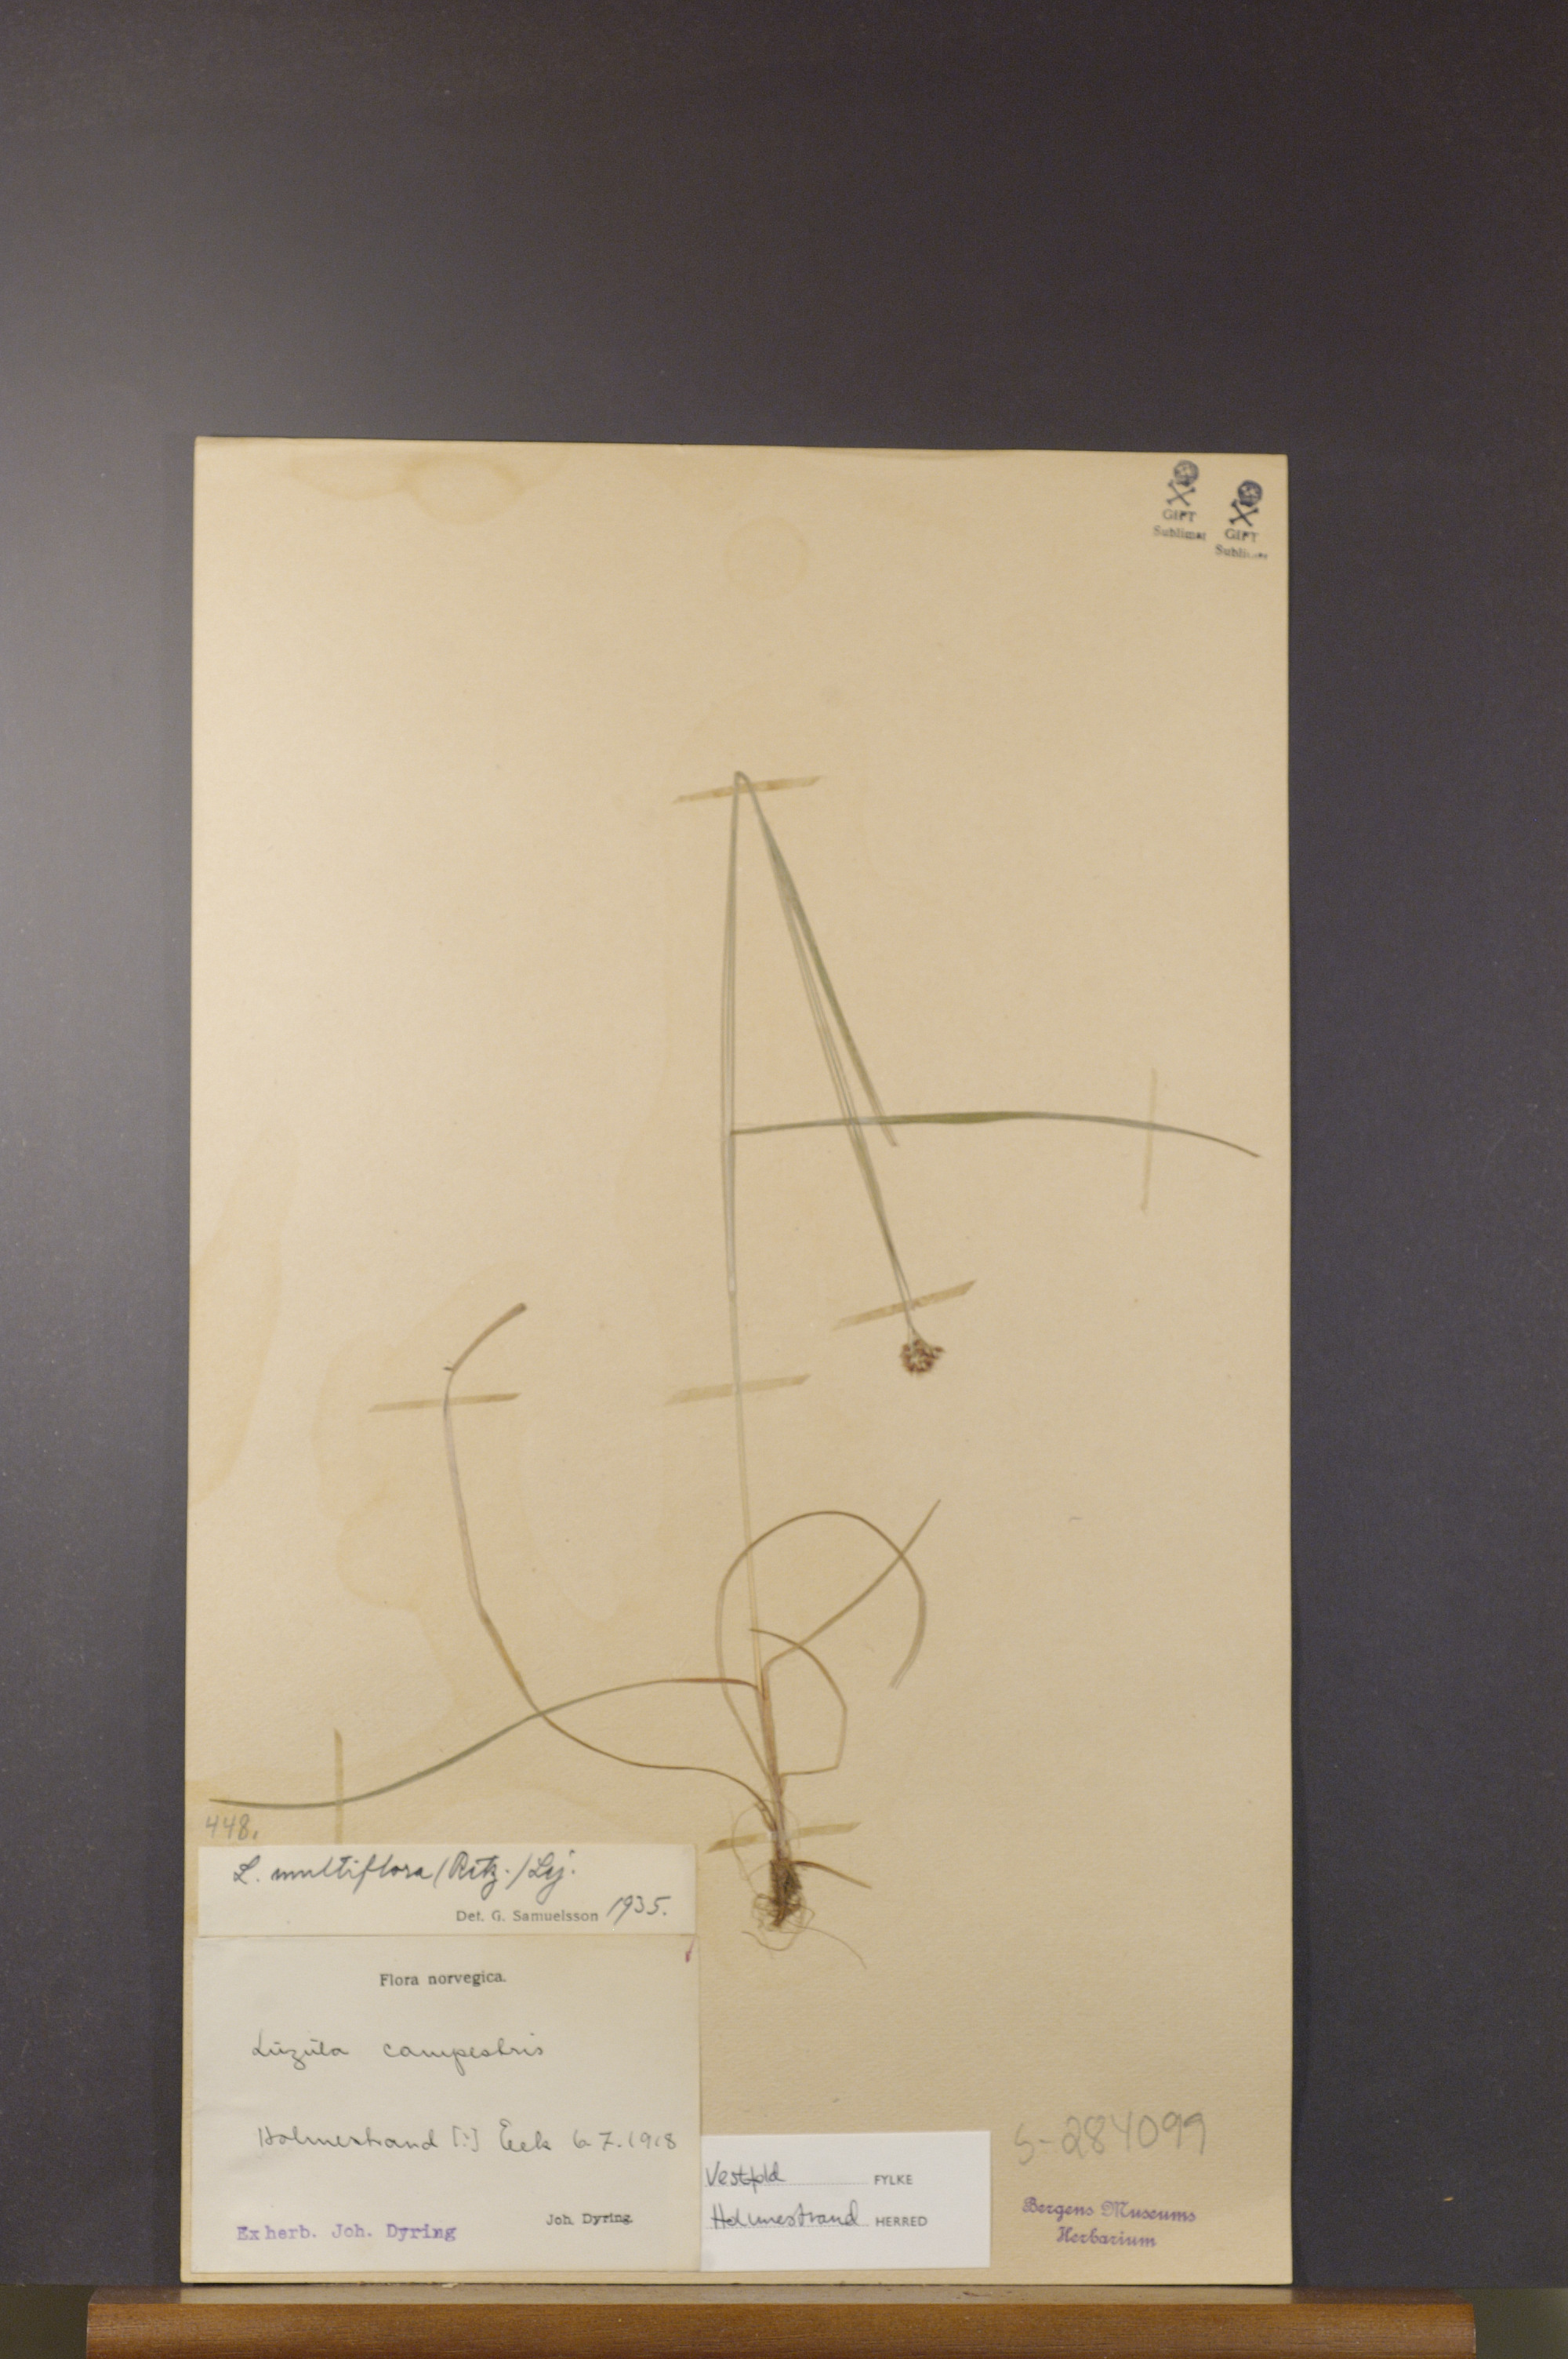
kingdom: Plantae
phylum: Tracheophyta
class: Liliopsida
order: Poales
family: Juncaceae
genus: Luzula
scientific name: Luzula multiflora
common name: Heath wood-rush
